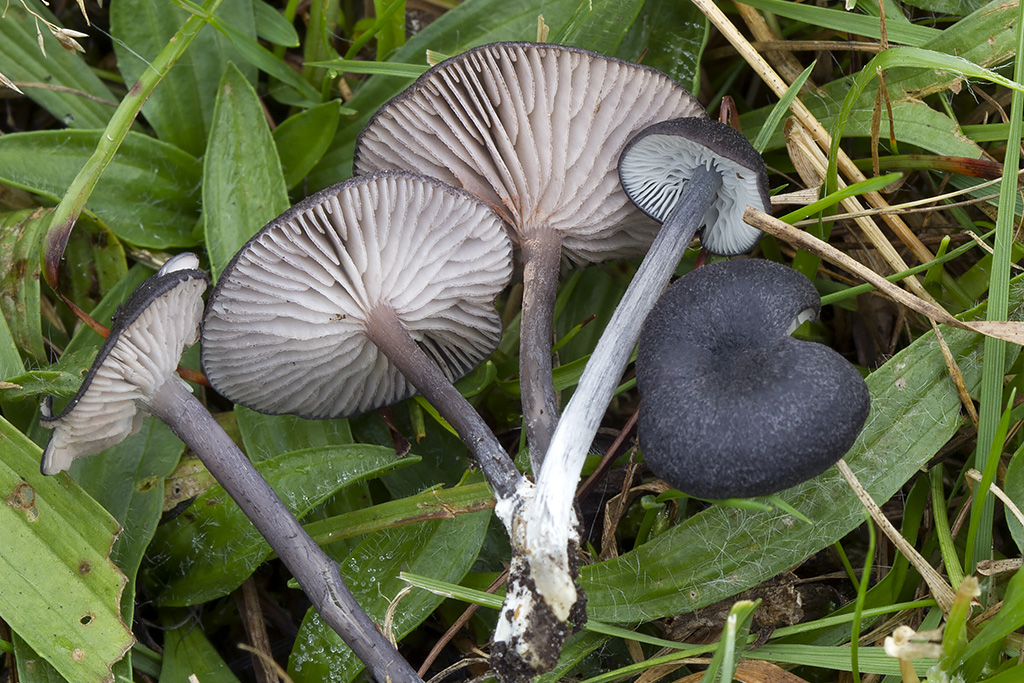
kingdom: Fungi
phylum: Basidiomycota
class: Agaricomycetes
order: Agaricales
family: Entolomataceae
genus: Entoloma
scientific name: Entoloma porphyrogriseum
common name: porfyrgrå rødblad
